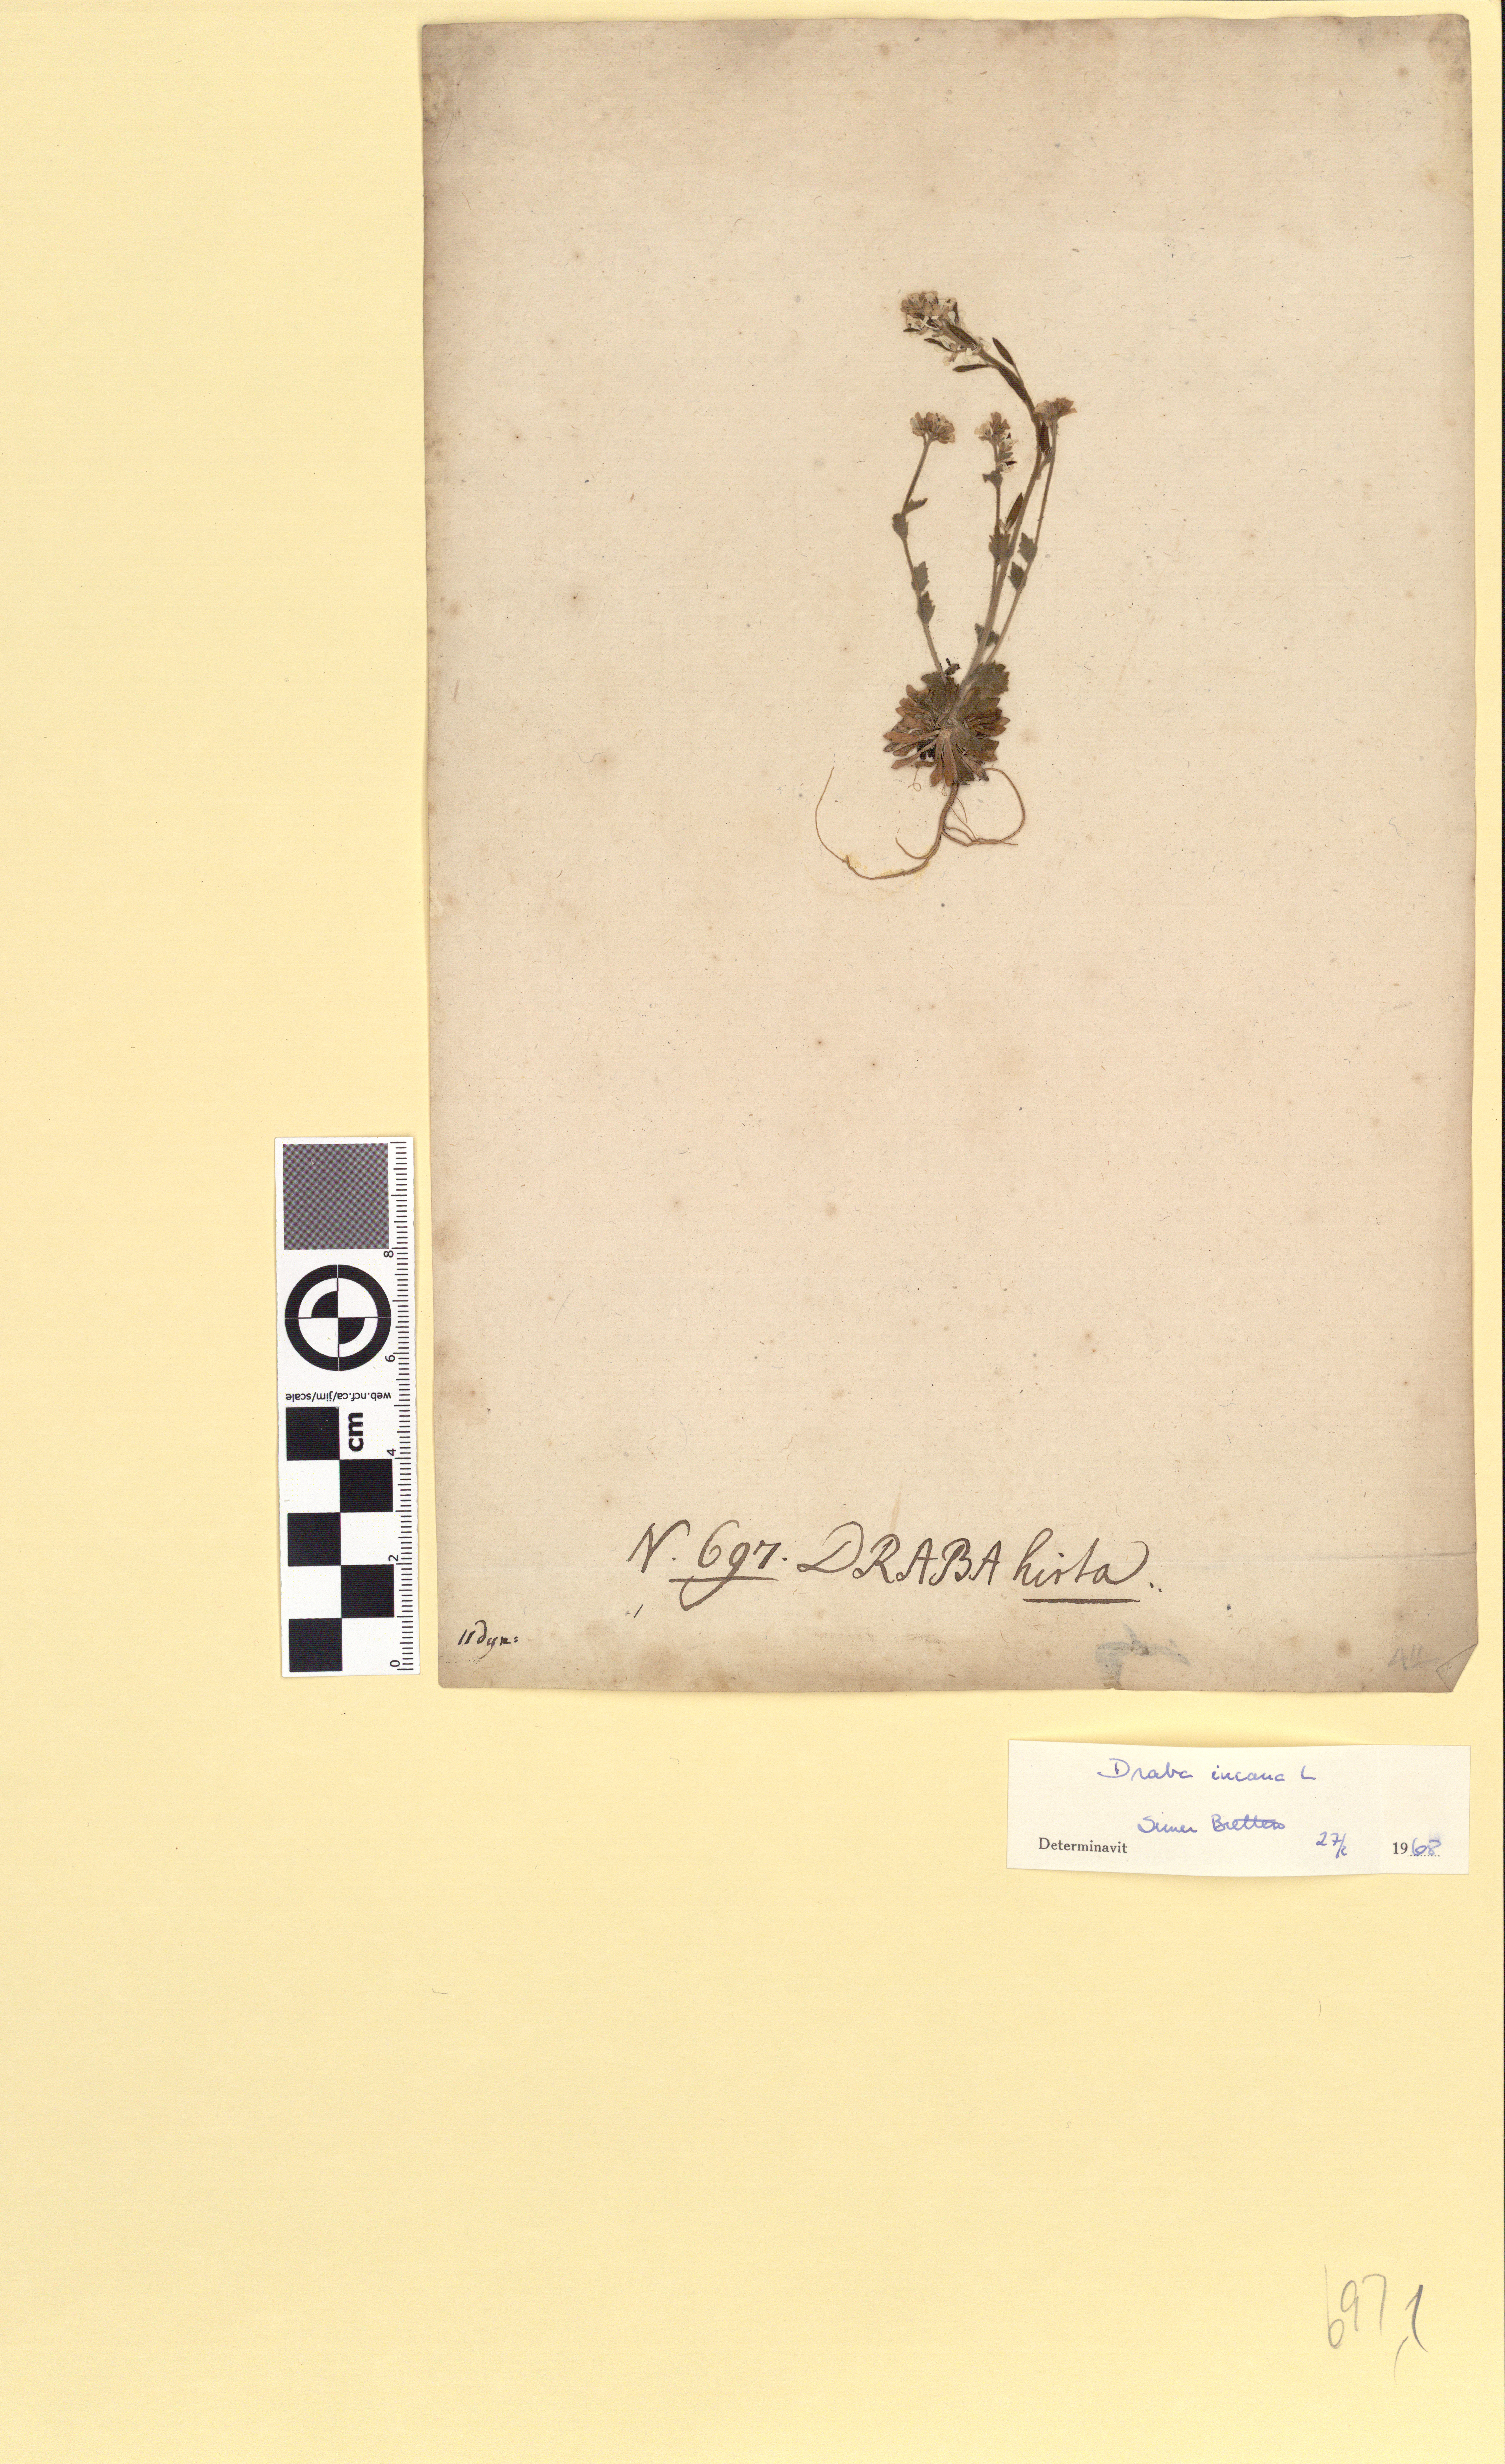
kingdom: Plantae
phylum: Tracheophyta
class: Magnoliopsida
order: Brassicales
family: Brassicaceae
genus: Draba
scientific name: Draba incana
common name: Hoary whitlow-grass
